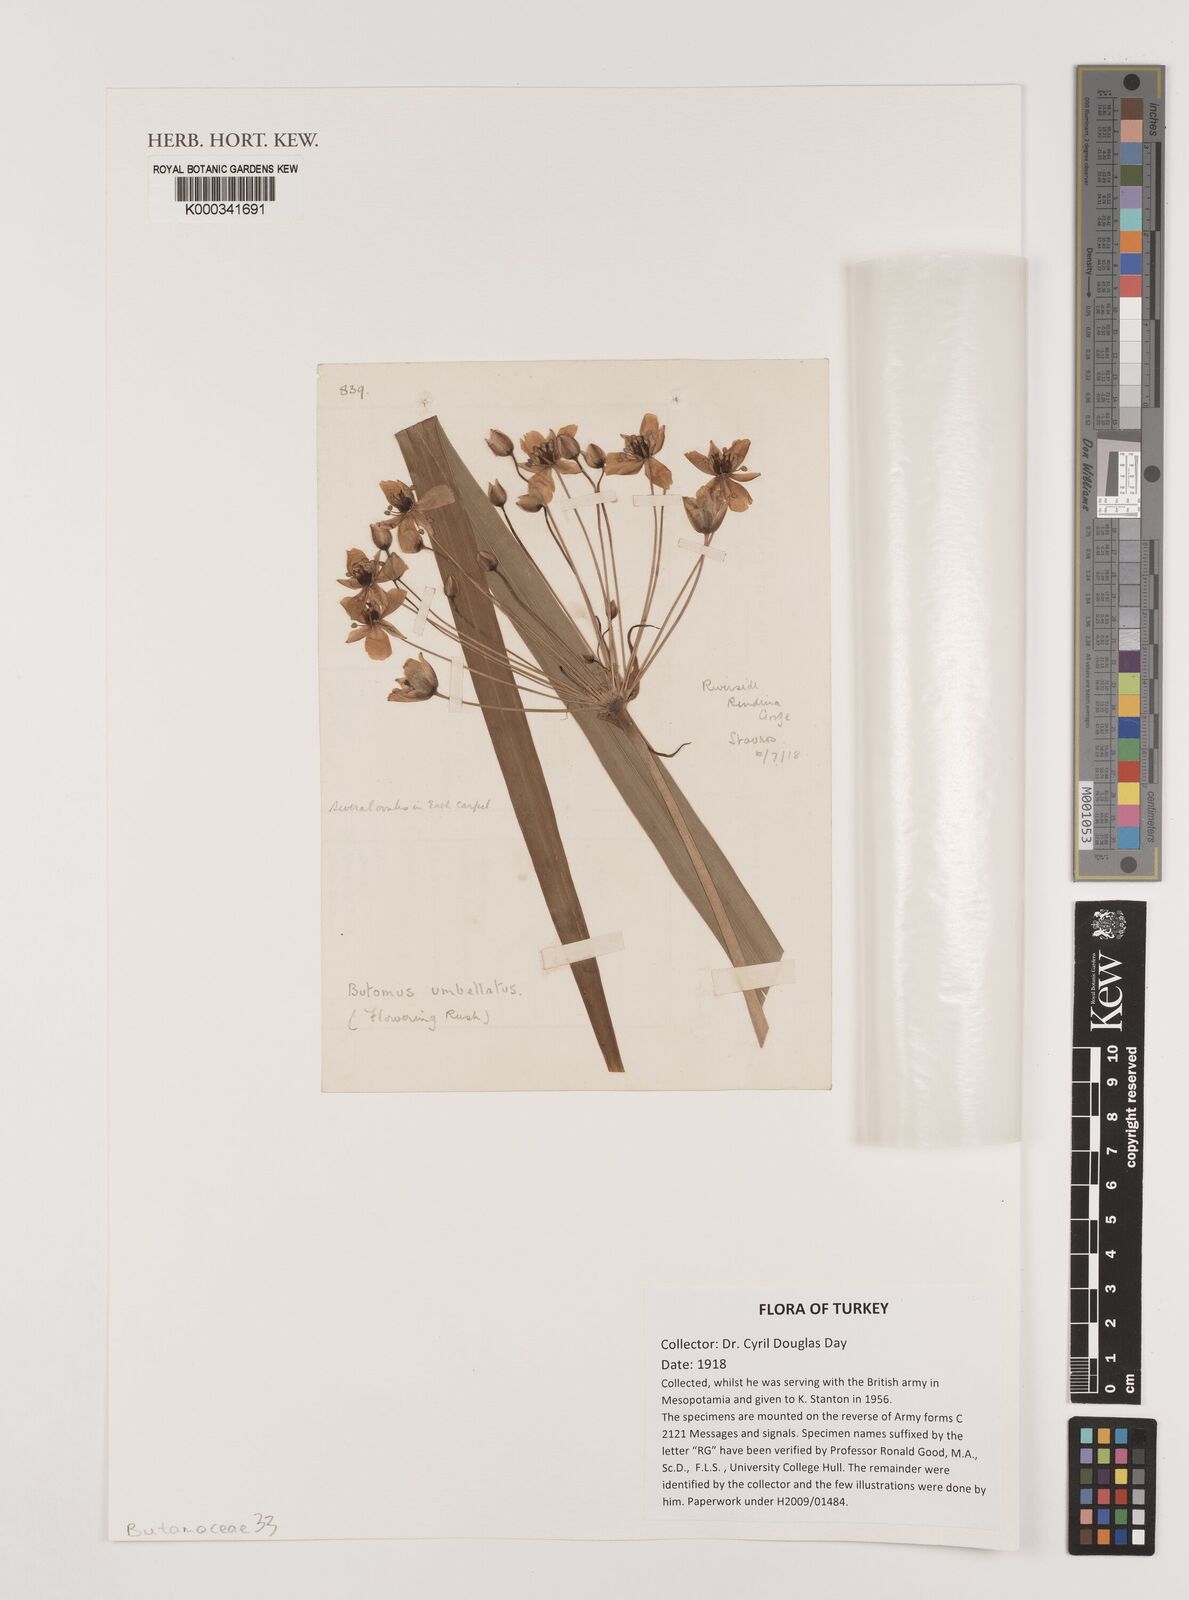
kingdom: Plantae
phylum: Tracheophyta
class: Liliopsida
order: Alismatales
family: Butomaceae
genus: Butomus
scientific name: Butomus umbellatus
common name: Flowering-rush
